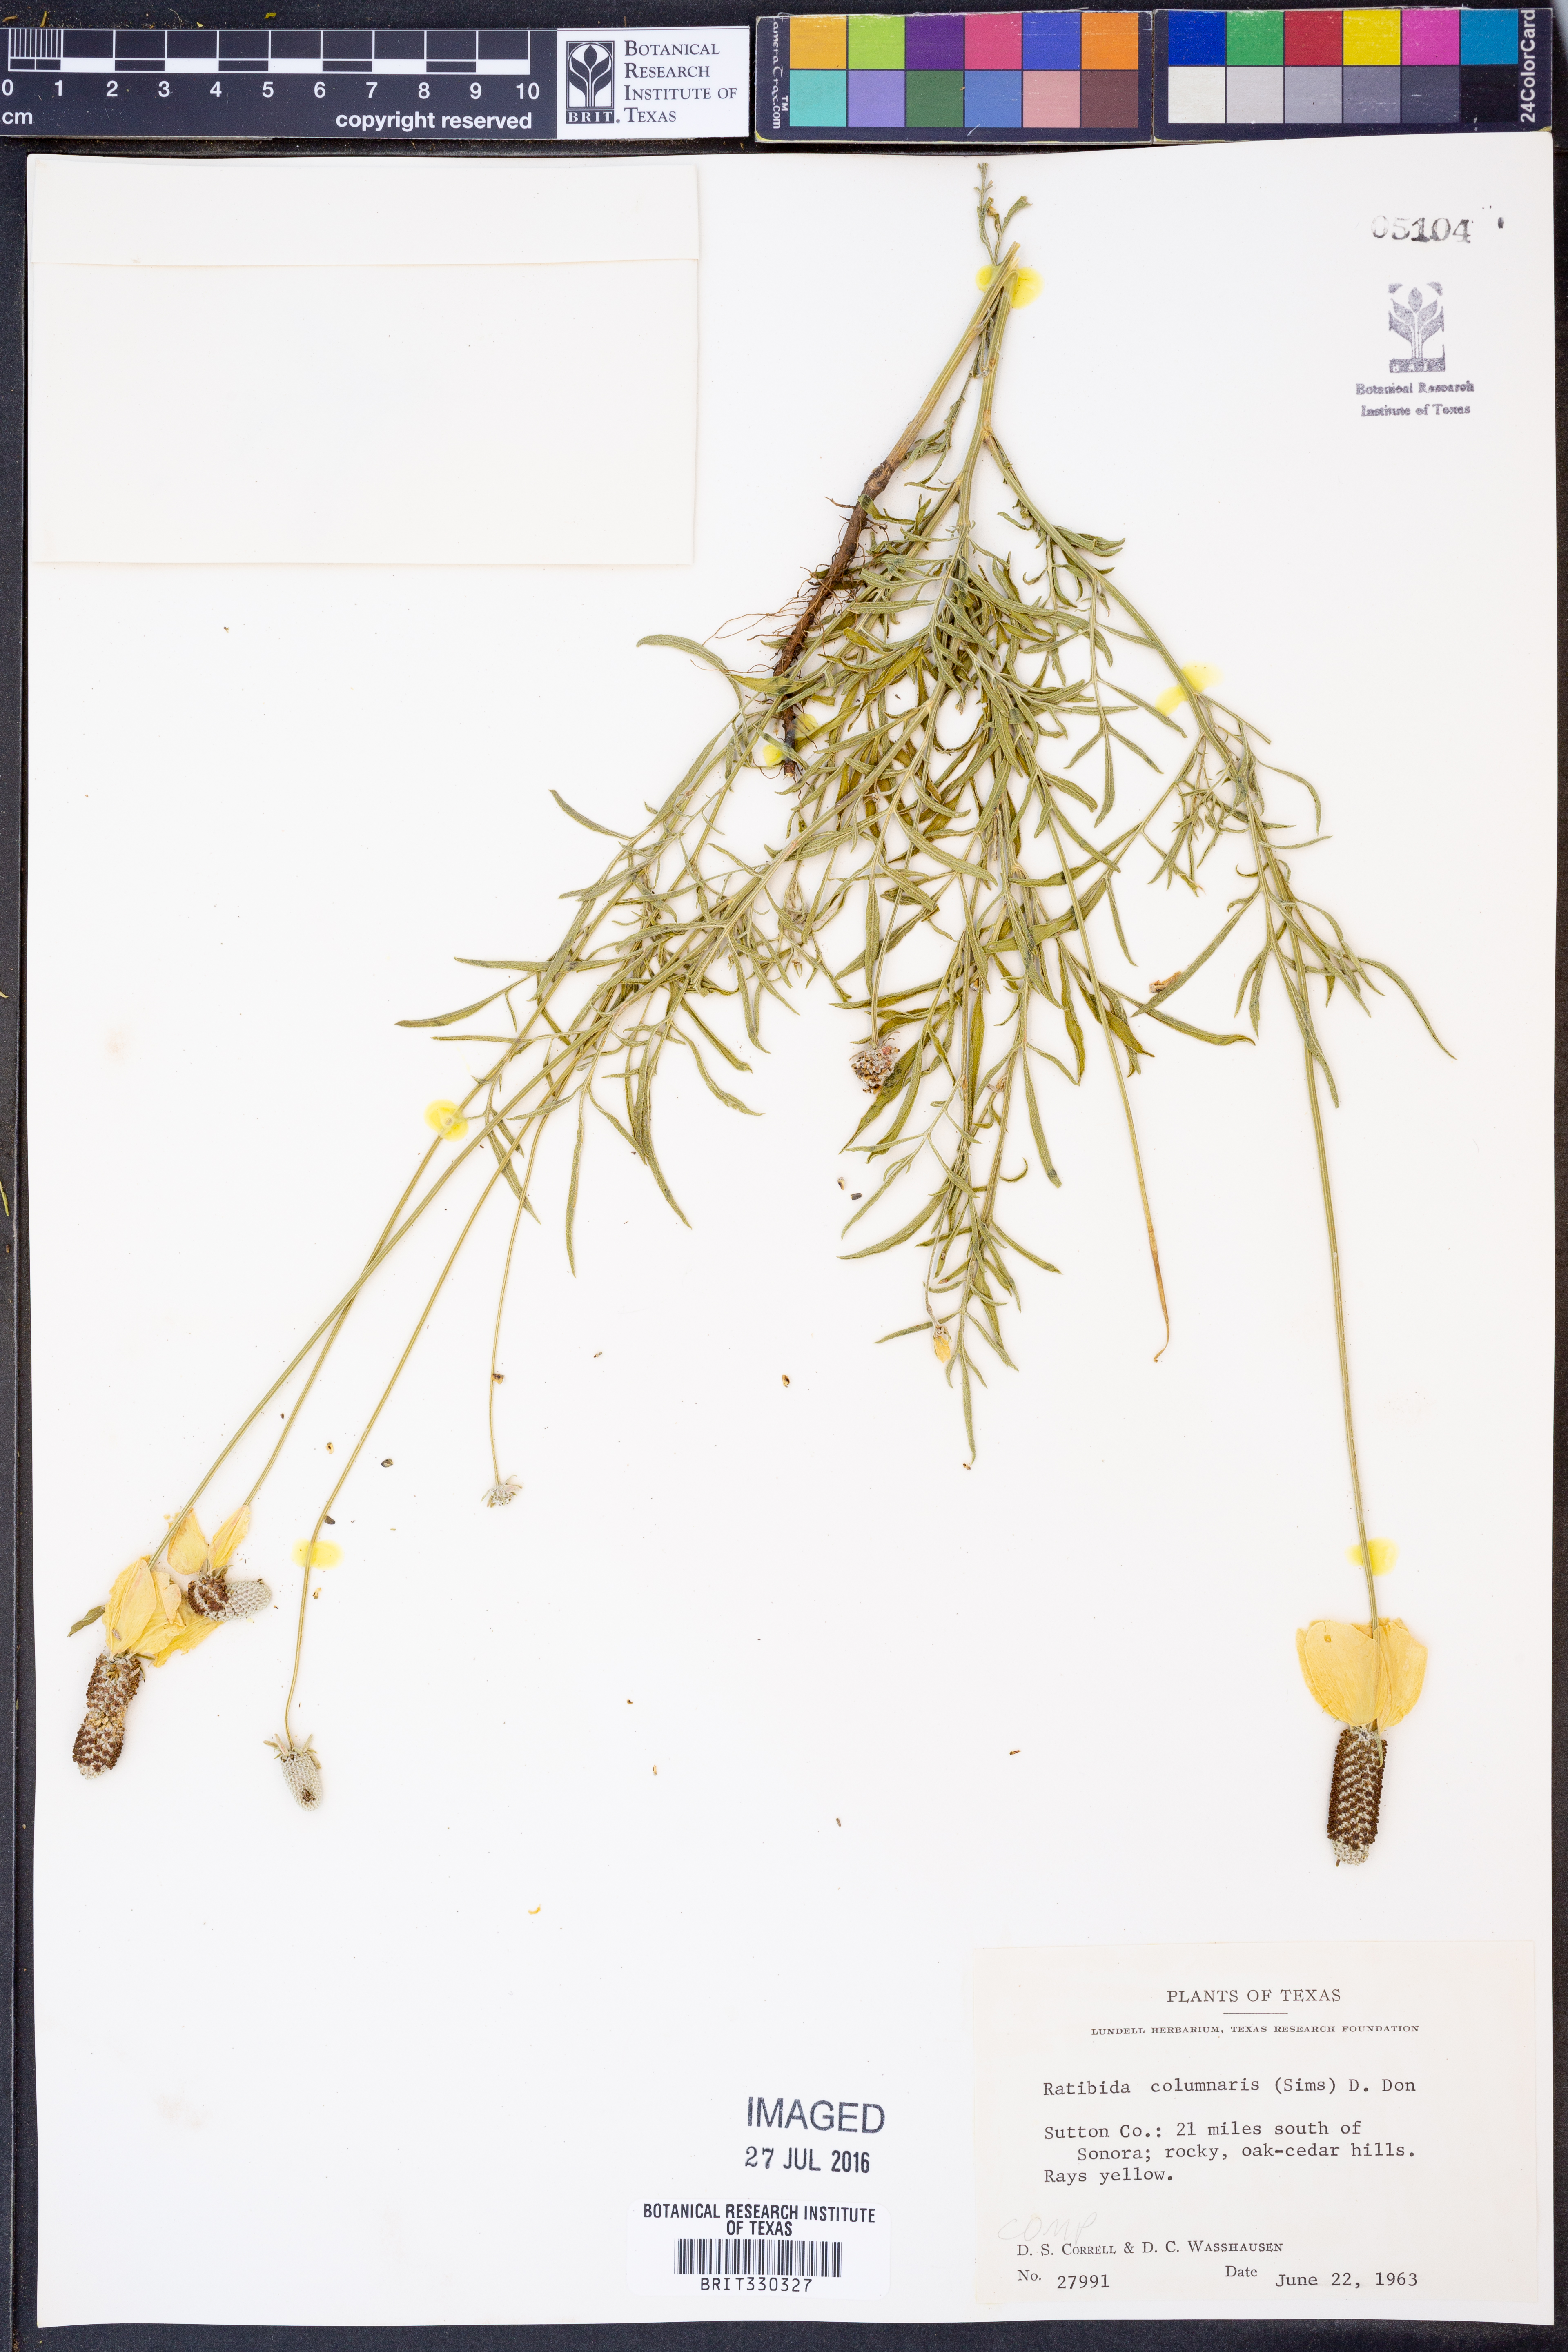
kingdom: Plantae
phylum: Tracheophyta
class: Magnoliopsida
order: Asterales
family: Asteraceae
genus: Ratibida
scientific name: Ratibida columnifera
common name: Prairie coneflower
